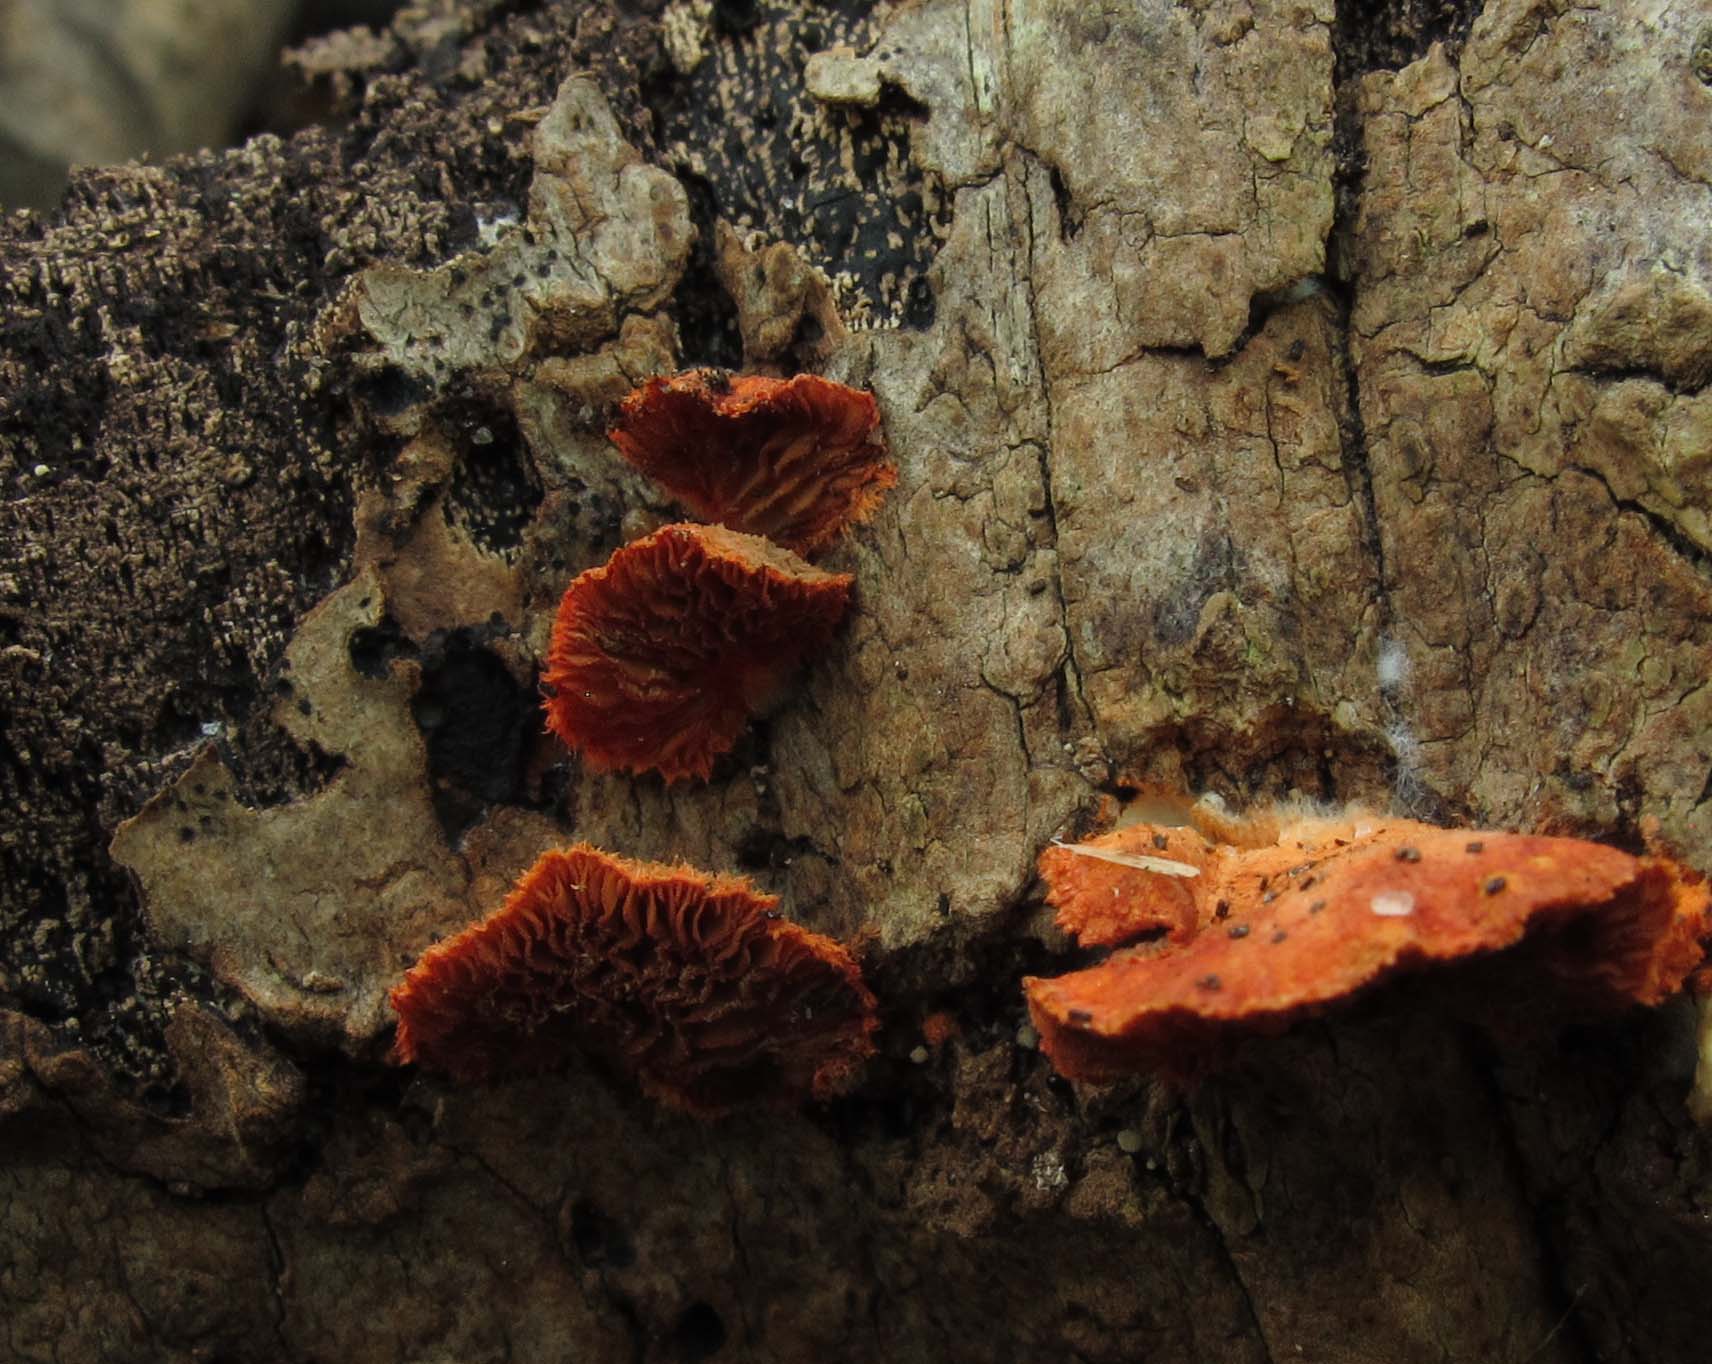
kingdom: Fungi
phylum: Basidiomycota
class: Agaricomycetes
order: Agaricales
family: Crepidotaceae
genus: Crepidotus
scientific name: Crepidotus cinnabarinus
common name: cinnober-muslingesvamp
